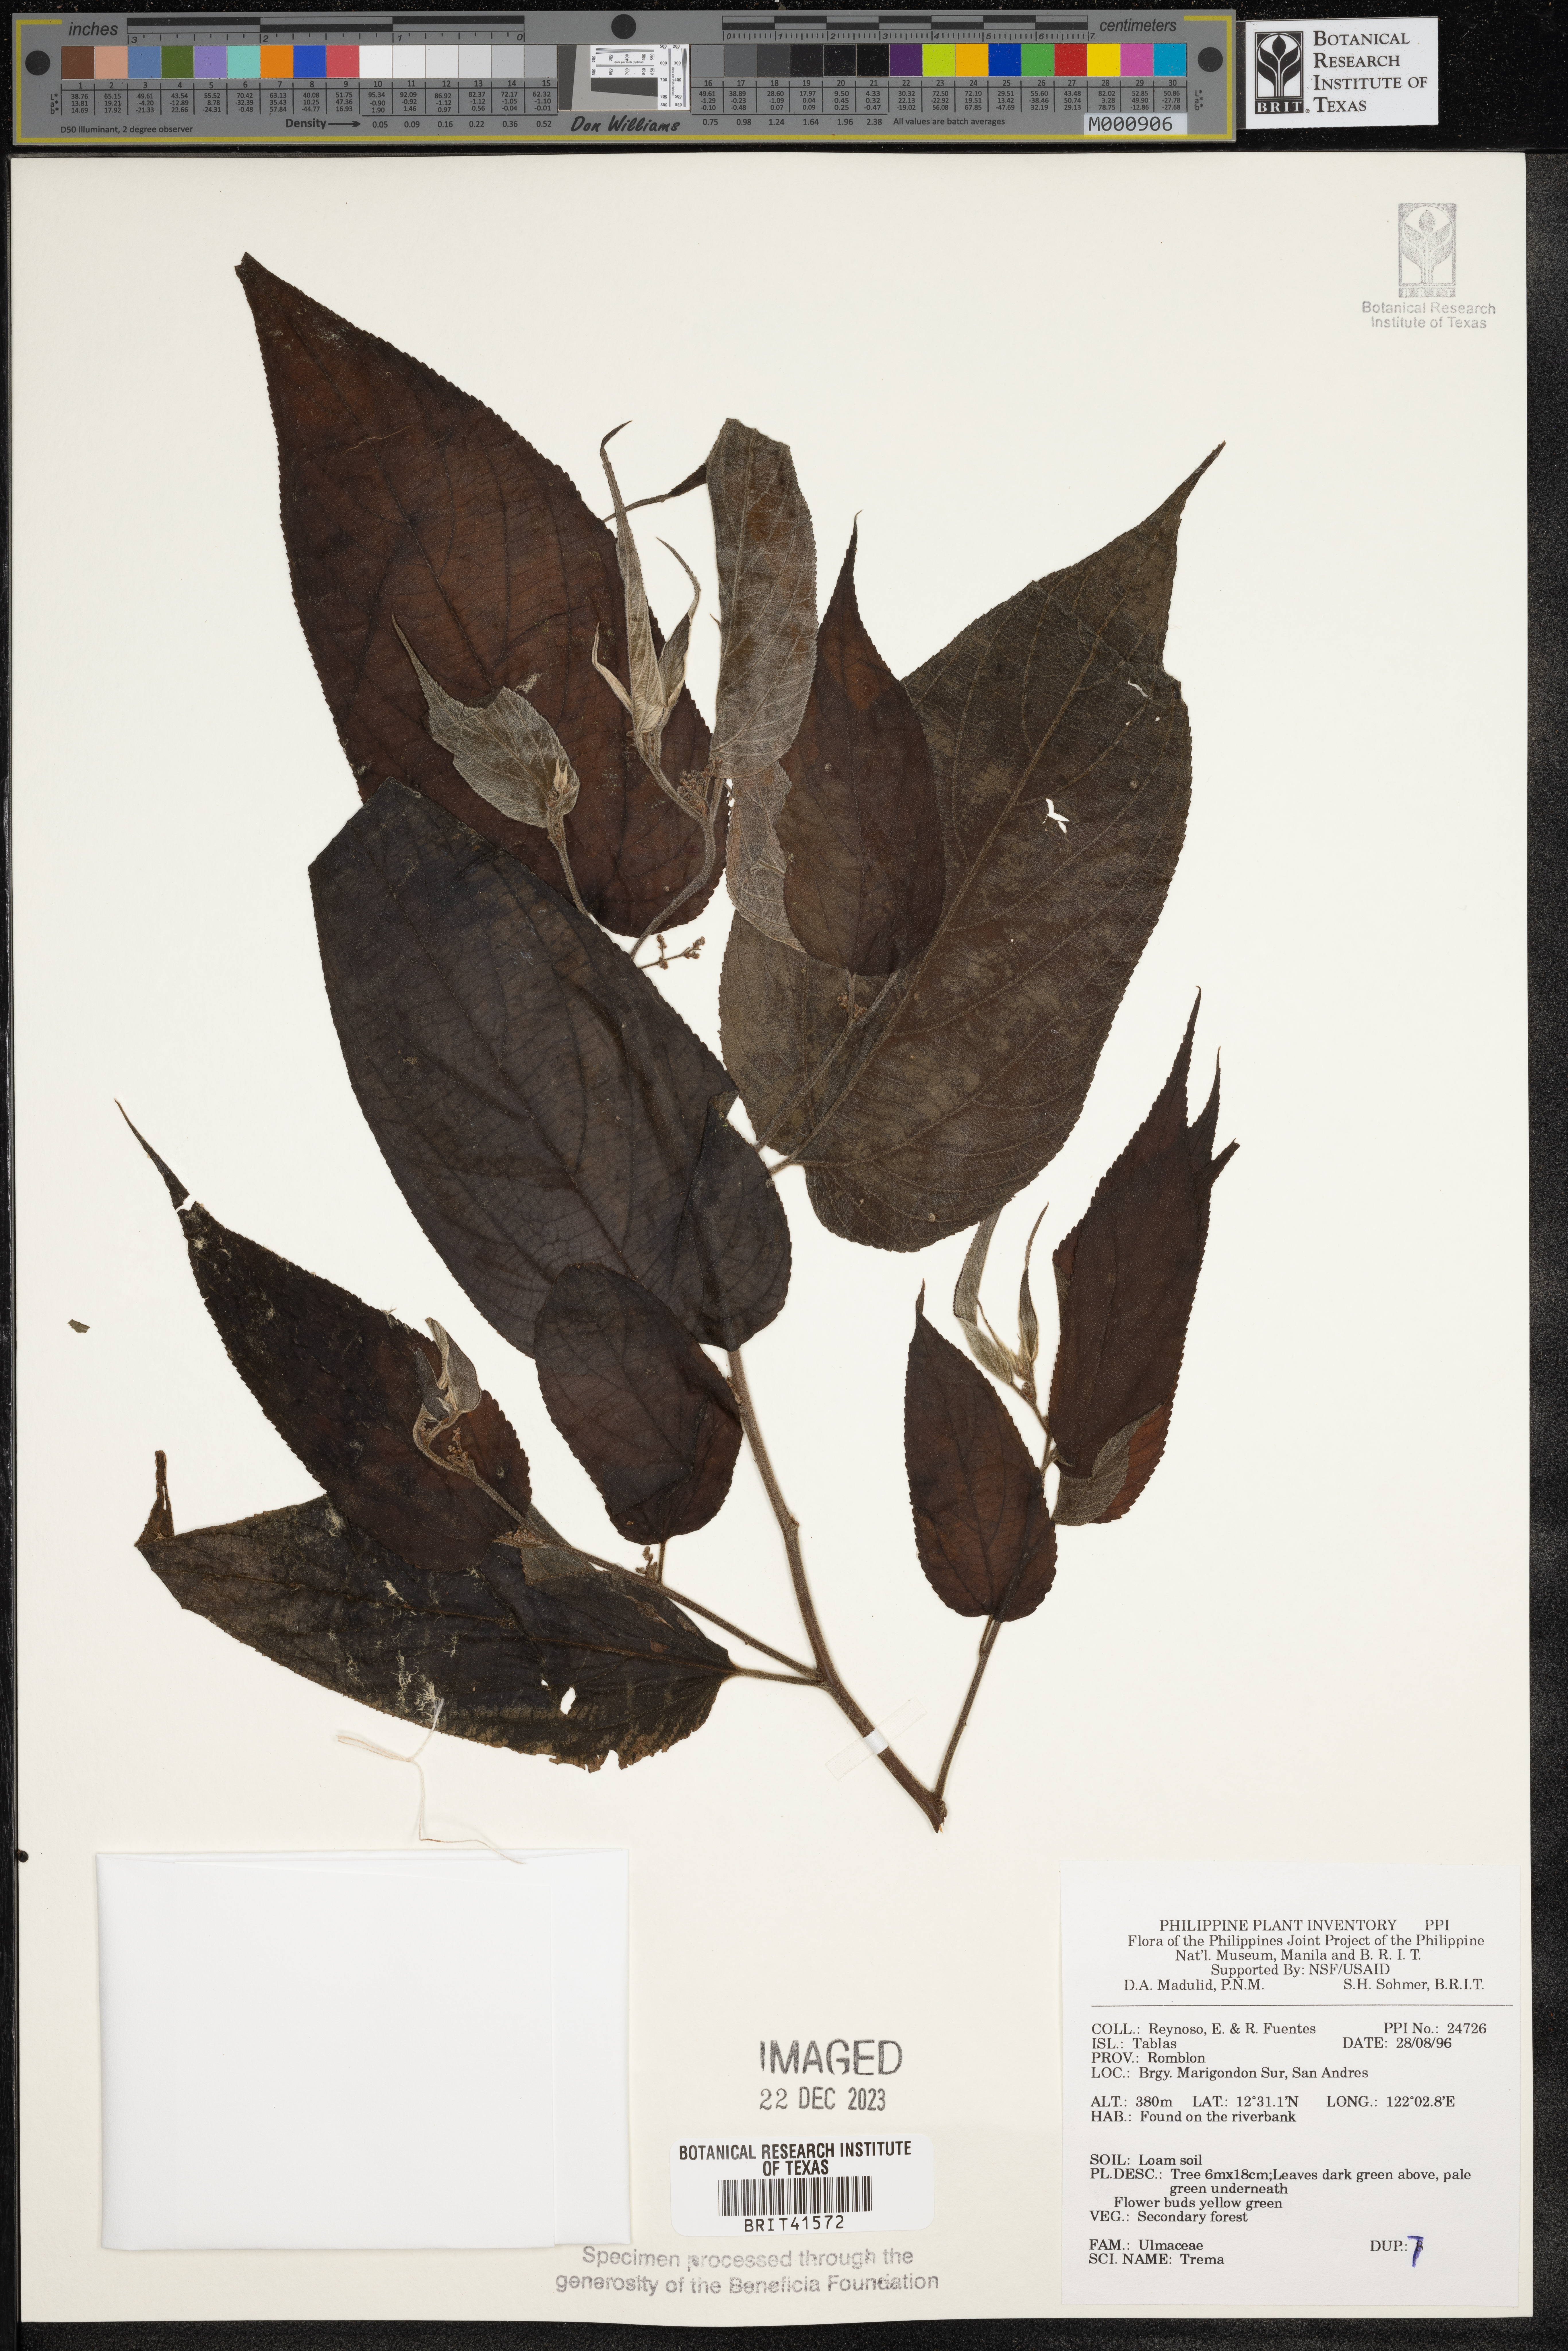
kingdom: Plantae
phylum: Tracheophyta
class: Magnoliopsida
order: Rosales
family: Cannabaceae
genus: Trema
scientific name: Trema
